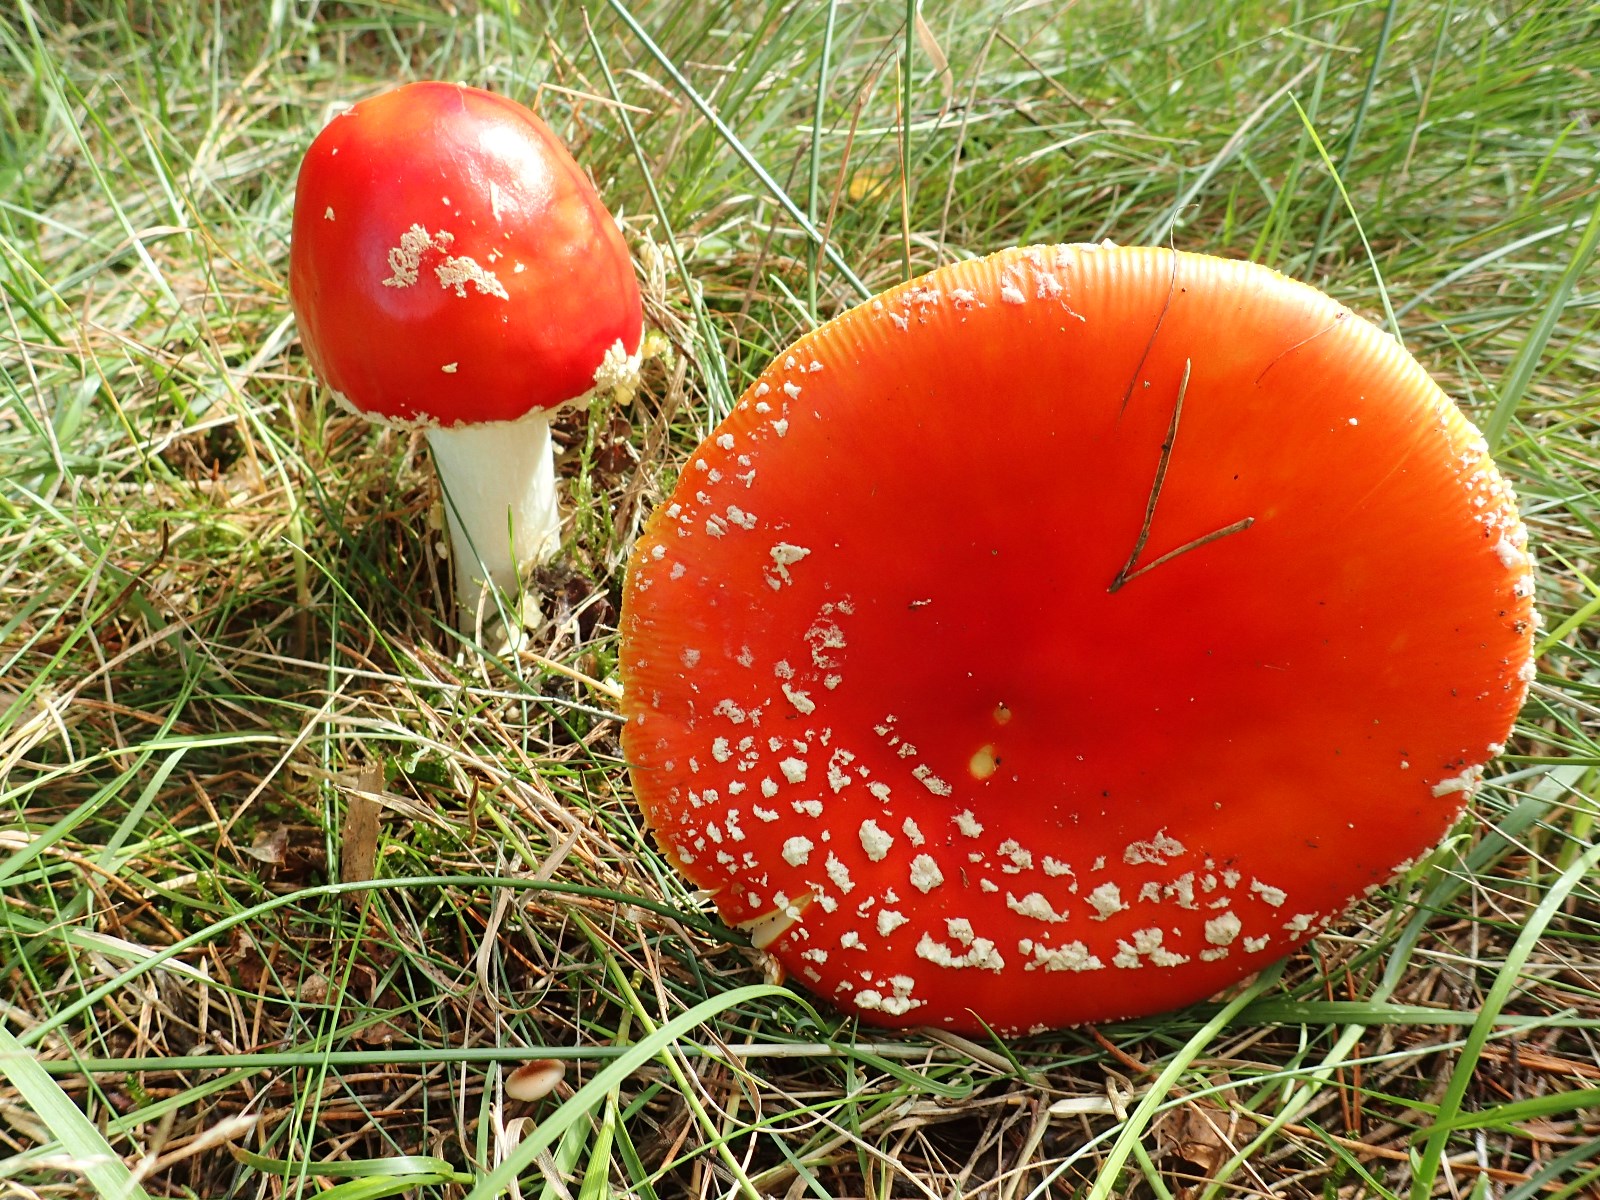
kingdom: Fungi
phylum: Basidiomycota
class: Agaricomycetes
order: Agaricales
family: Amanitaceae
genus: Amanita
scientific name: Amanita muscaria
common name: rød fluesvamp
